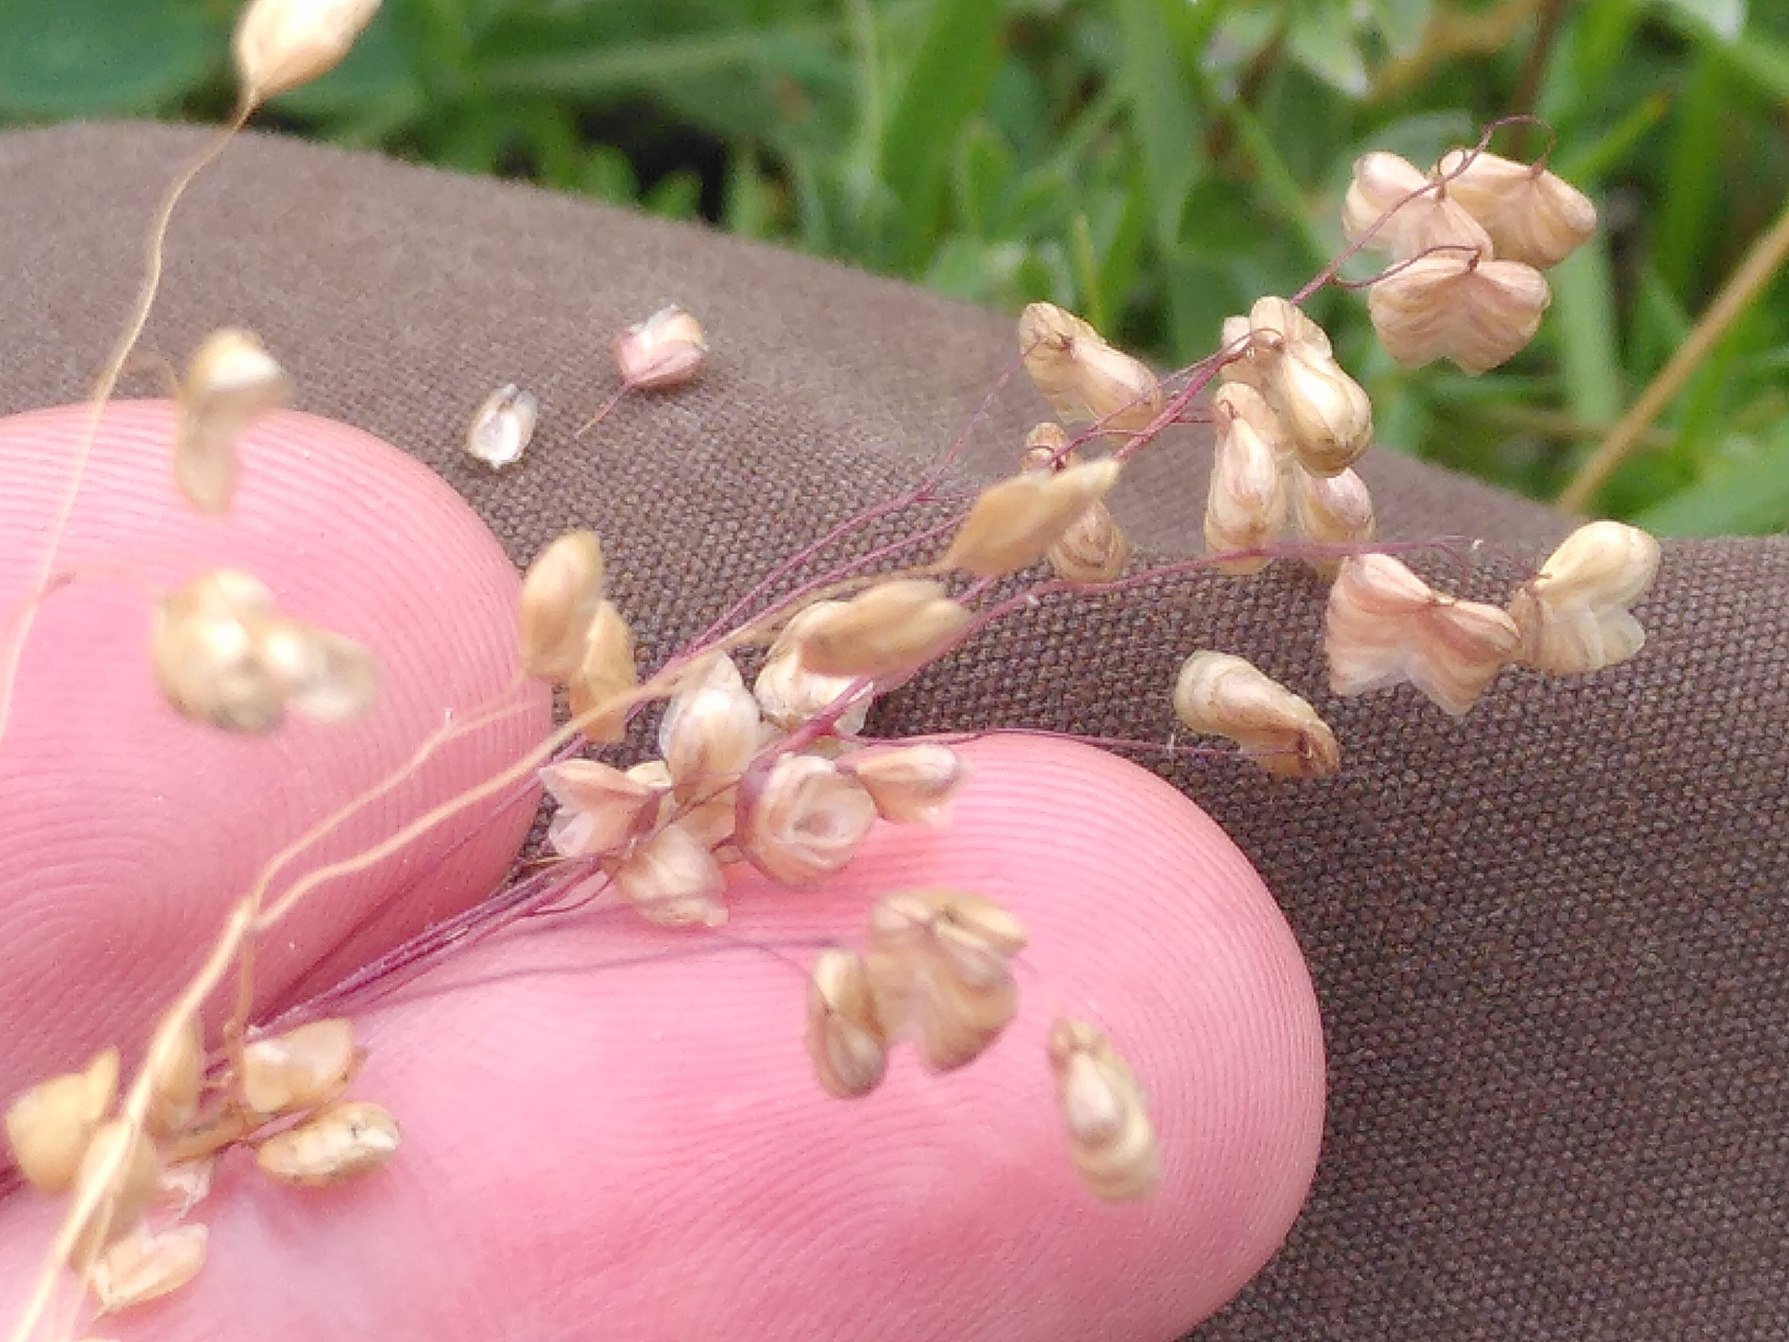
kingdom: Plantae
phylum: Tracheophyta
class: Liliopsida
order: Poales
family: Poaceae
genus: Briza
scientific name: Briza media
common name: Hjertegræs
